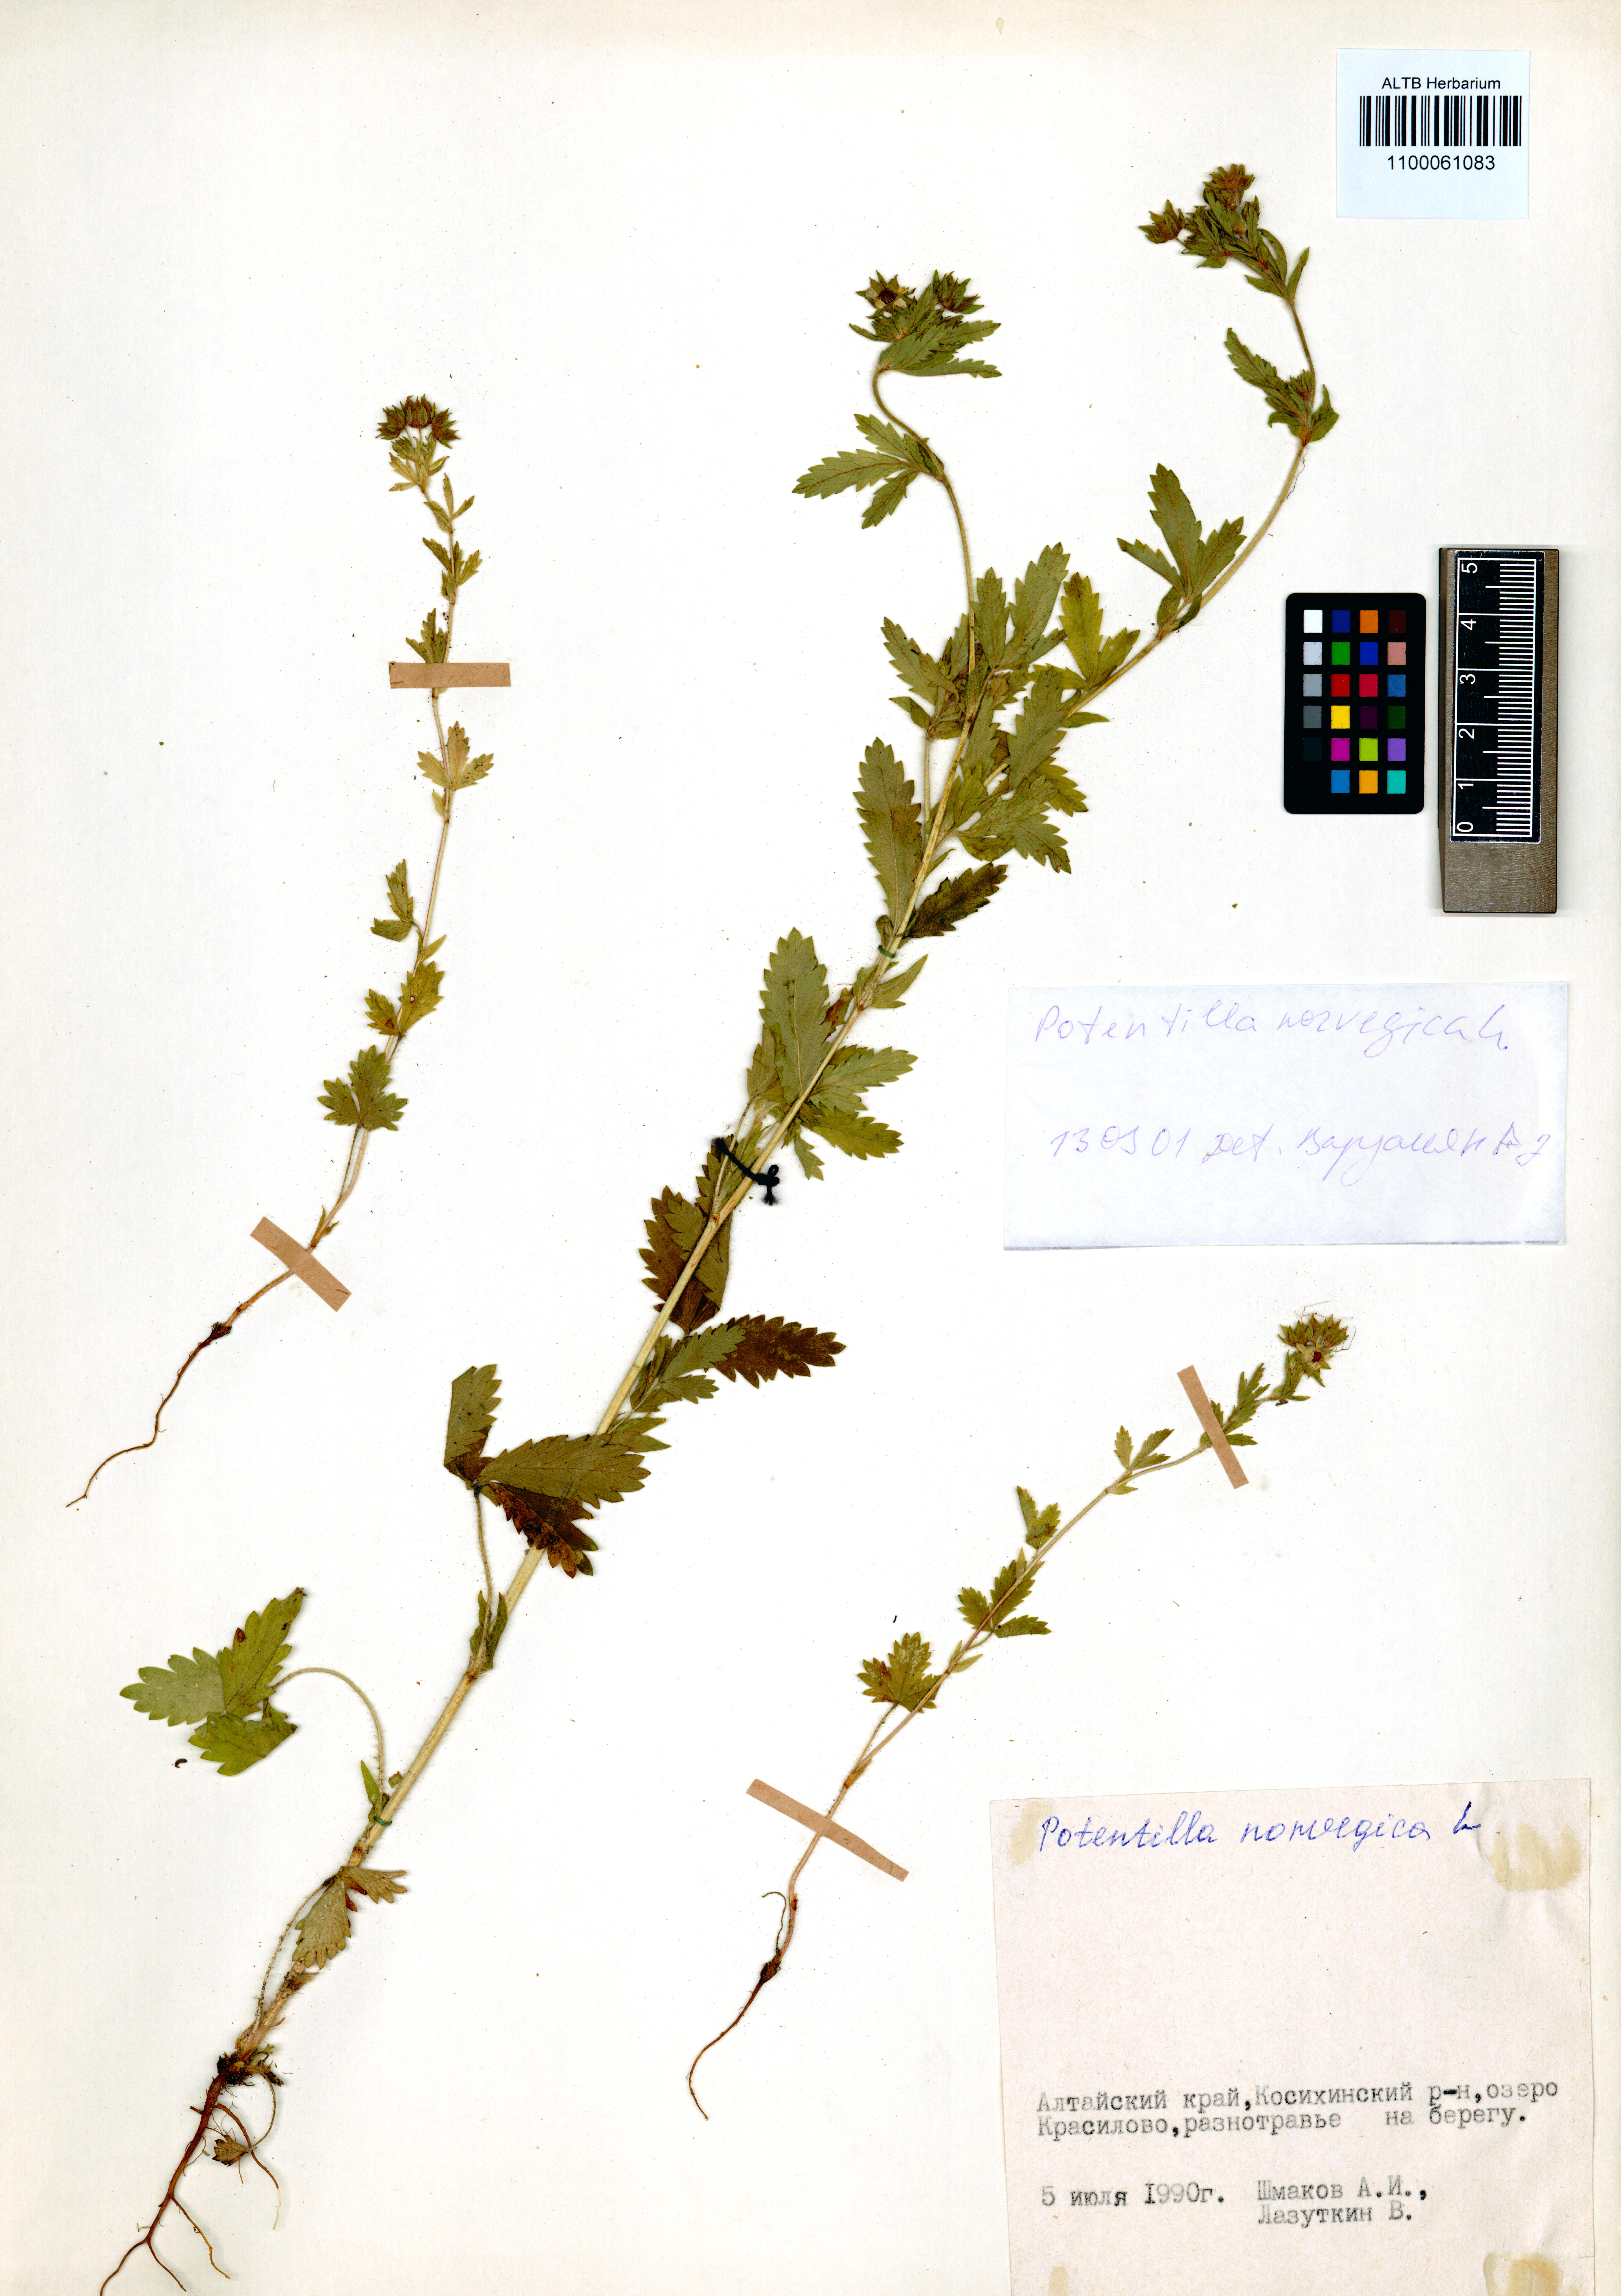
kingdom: Plantae
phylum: Tracheophyta
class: Magnoliopsida
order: Rosales
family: Rosaceae
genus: Potentilla
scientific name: Potentilla norvegica
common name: Ternate-leaved cinquefoil
